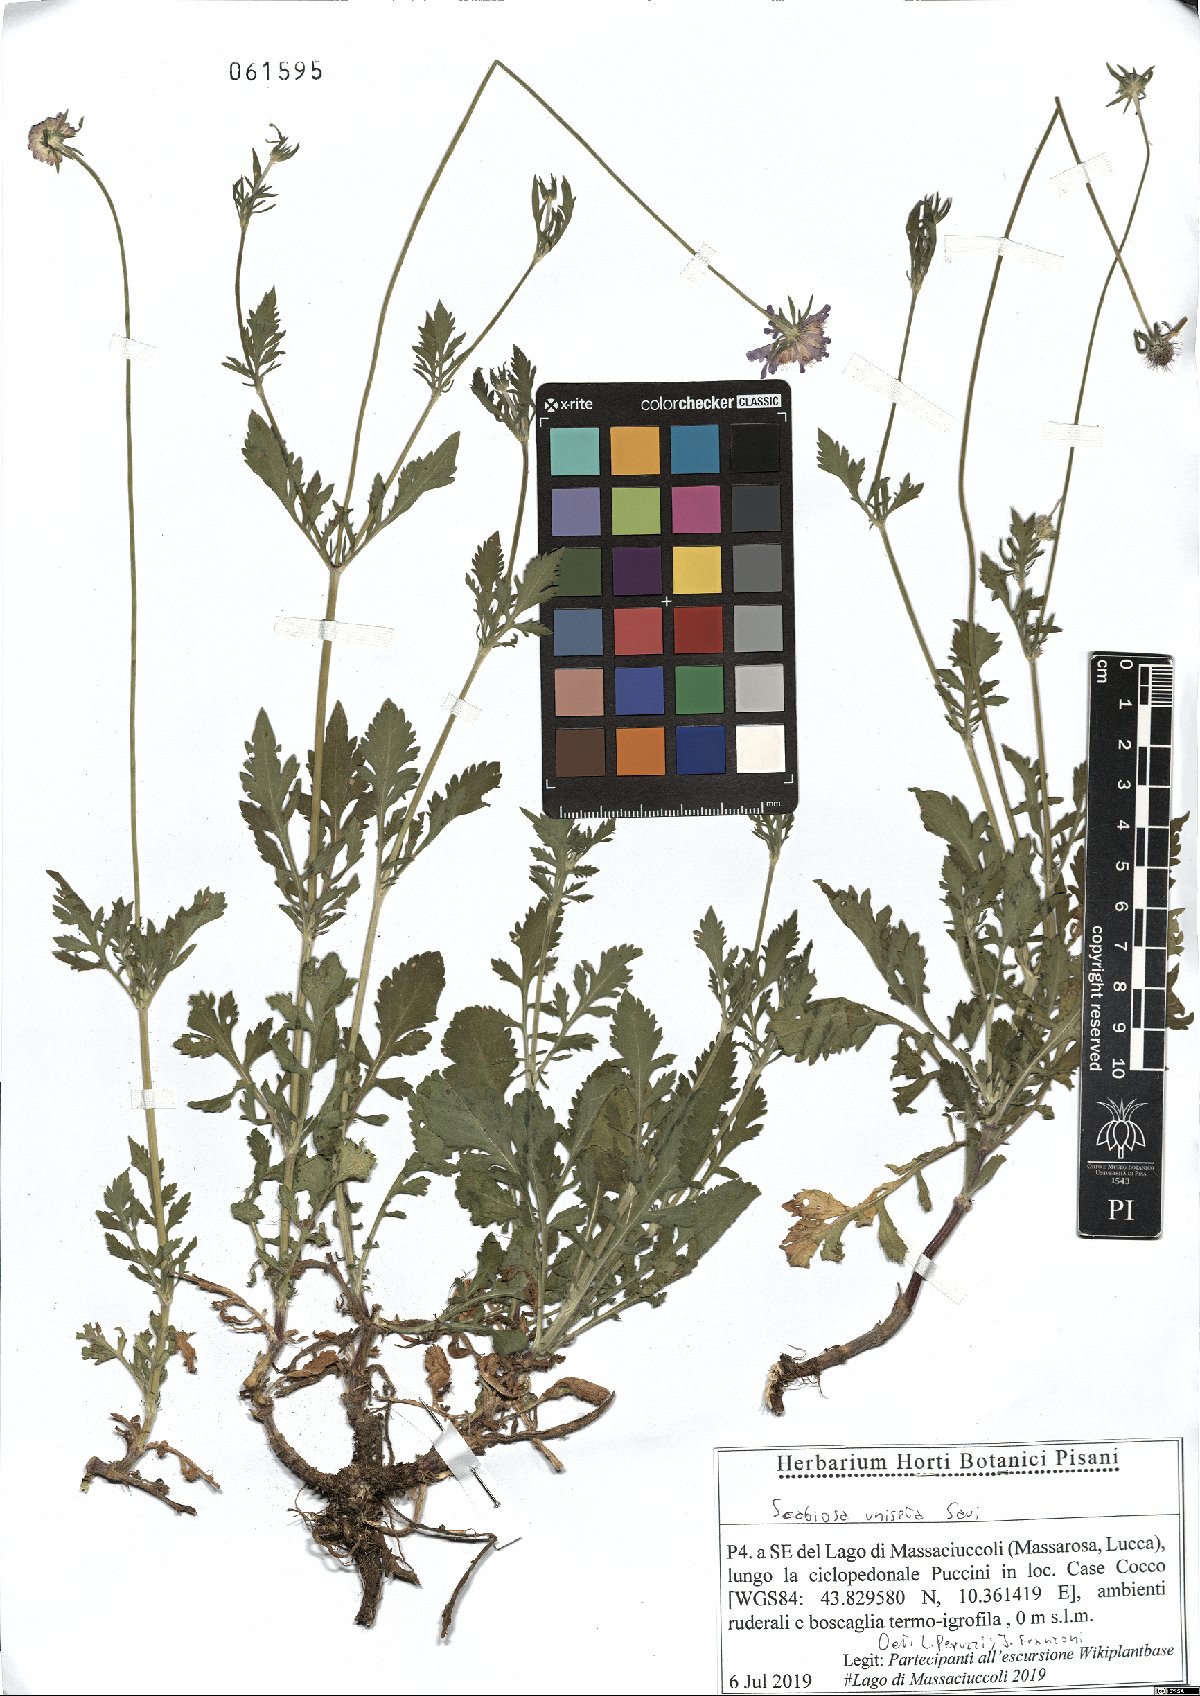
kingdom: Plantae
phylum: Tracheophyta
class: Magnoliopsida
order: Dipsacales
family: Caprifoliaceae
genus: Scabiosa
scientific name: Scabiosa columbaria
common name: Small scabious
